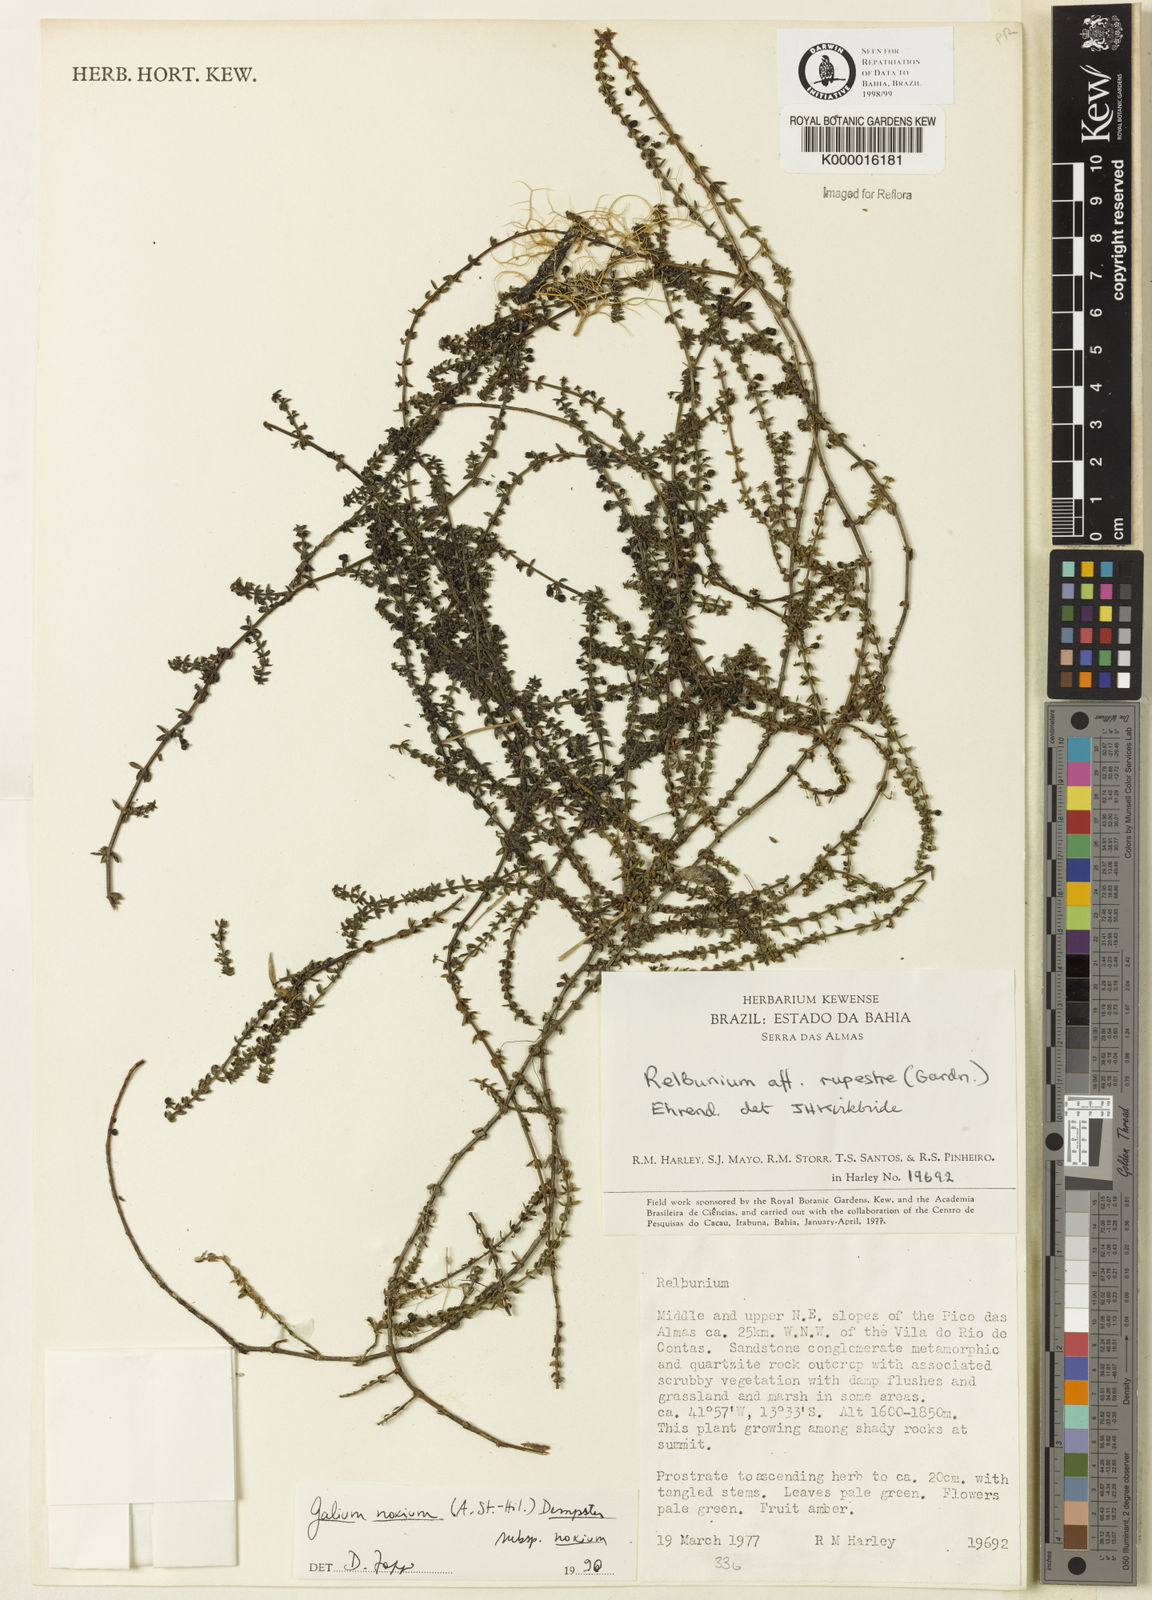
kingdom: Plantae
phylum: Tracheophyta
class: Magnoliopsida
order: Gentianales
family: Rubiaceae
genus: Galium
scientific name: Galium noxium
